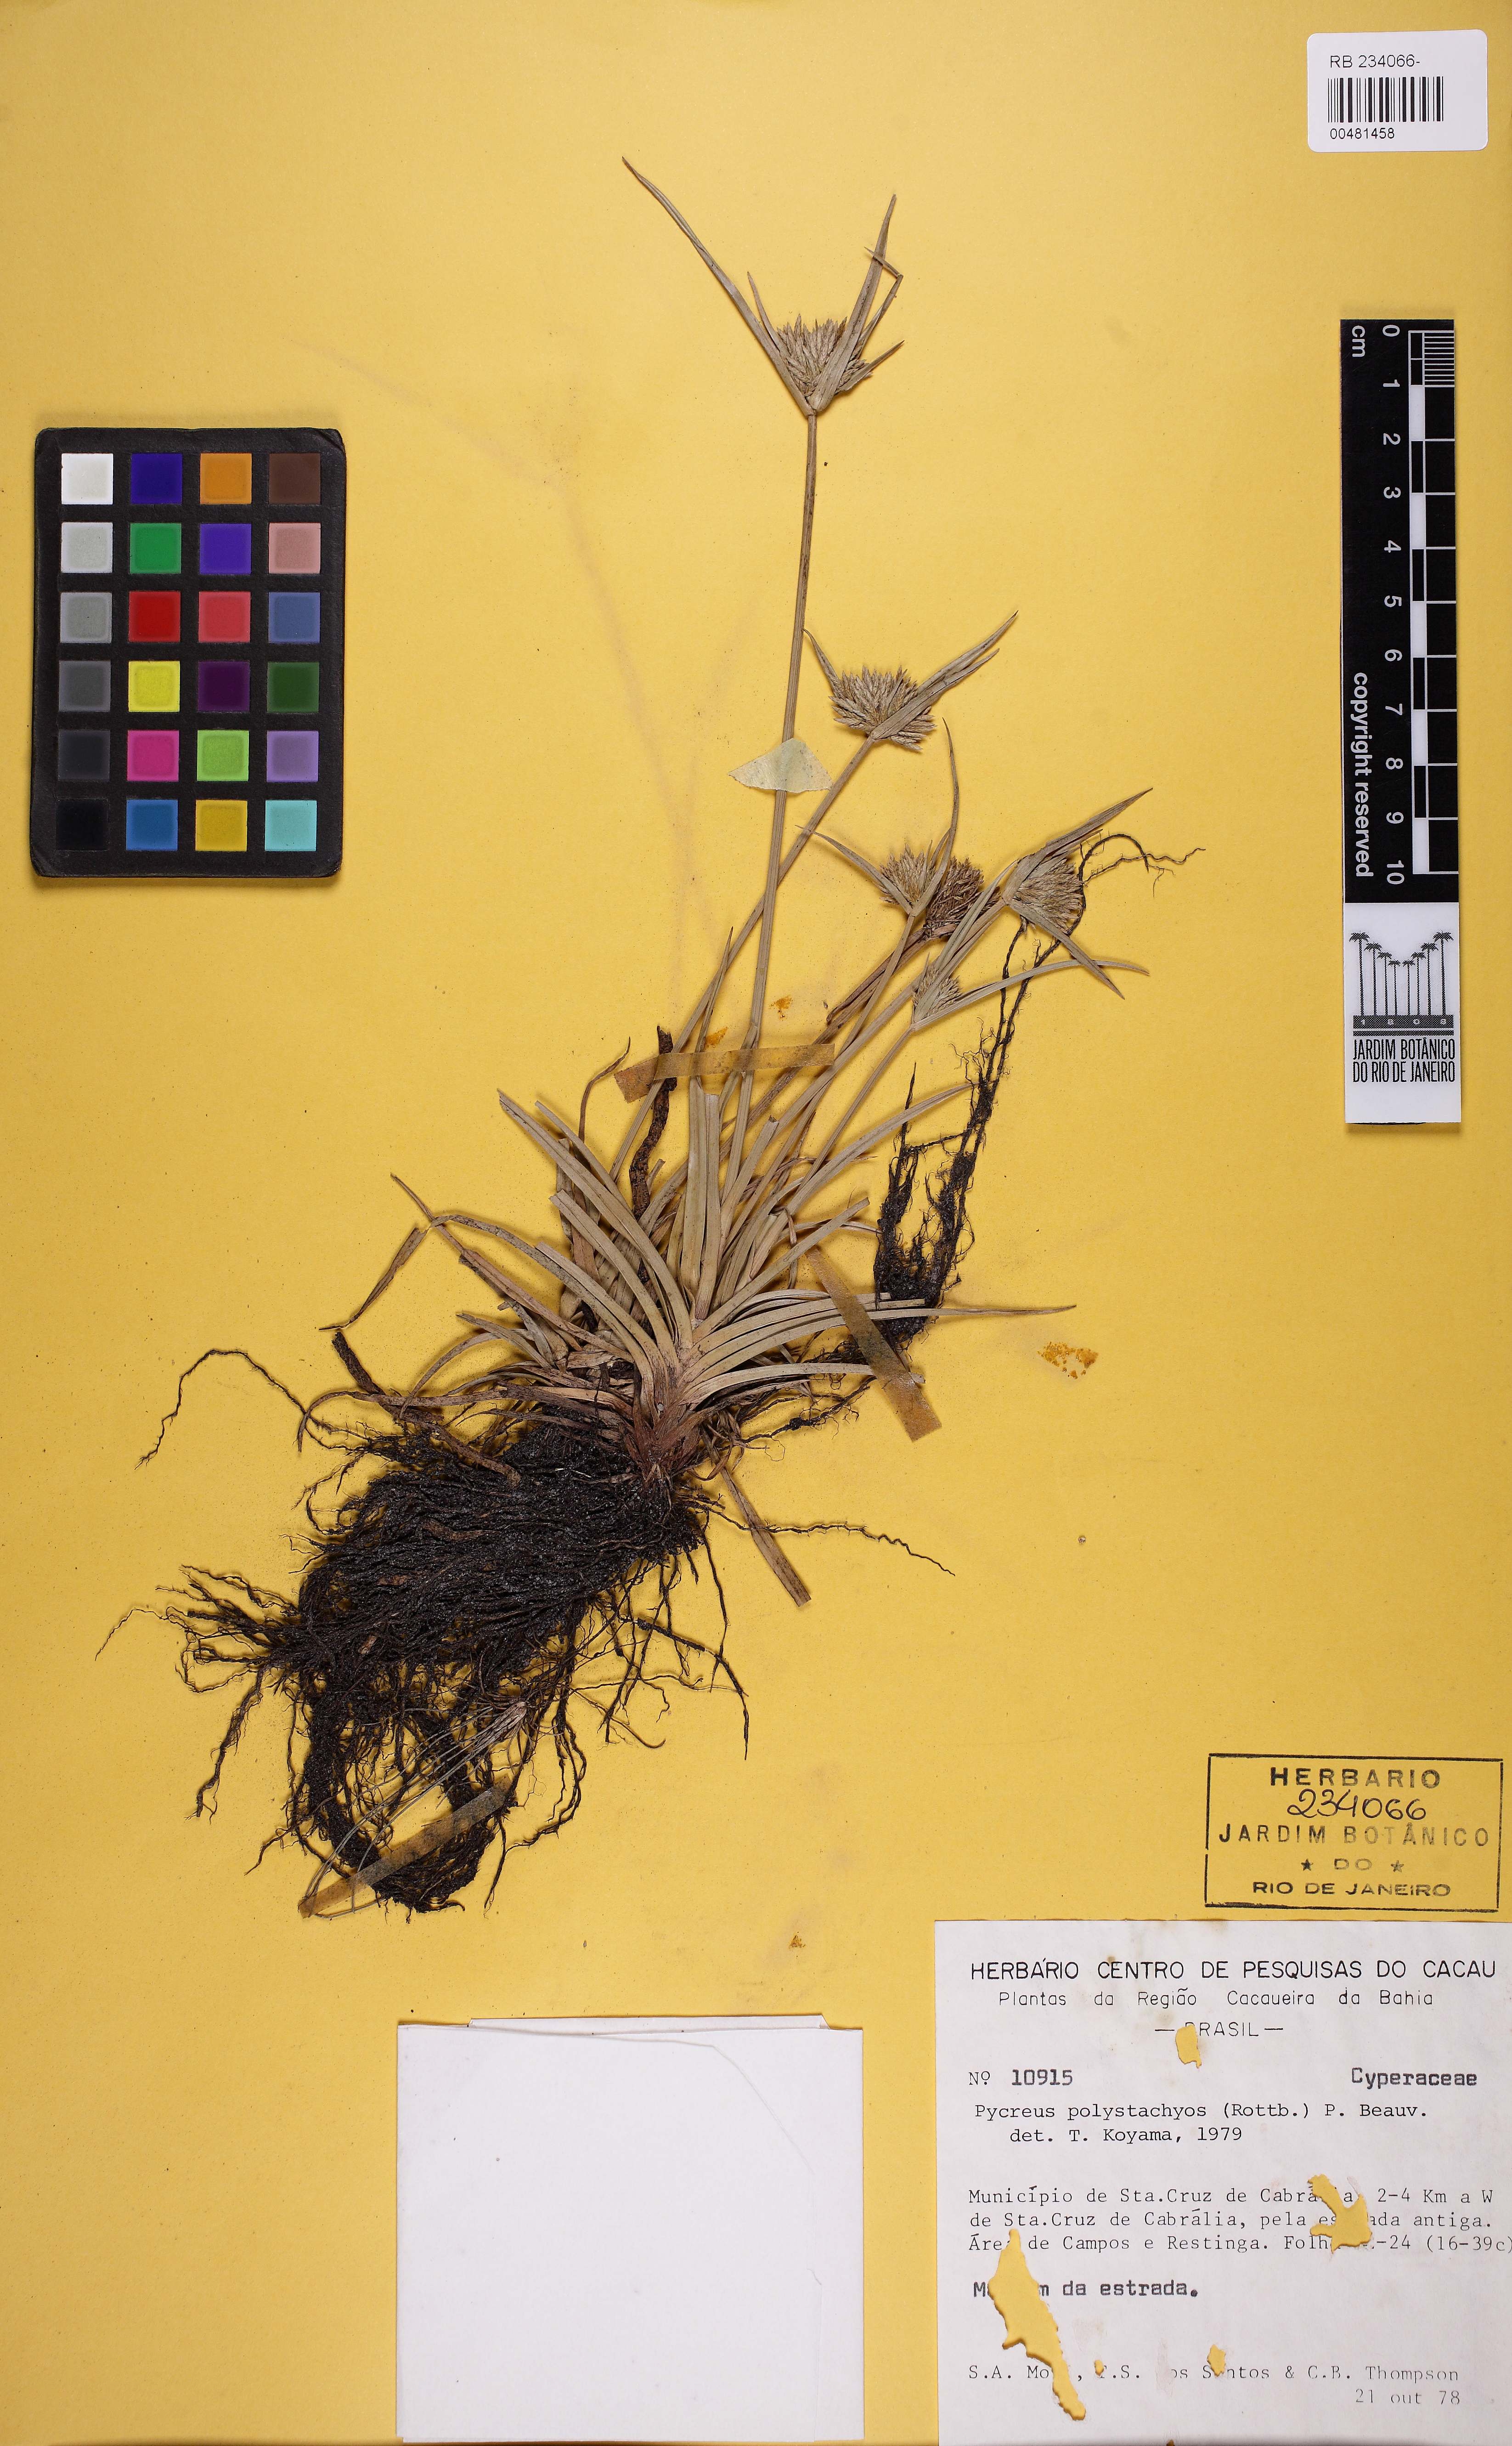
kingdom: Plantae
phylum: Tracheophyta
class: Liliopsida
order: Poales
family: Cyperaceae
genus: Cyperus
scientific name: Cyperus polystachyos
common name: Bunchy flat sedge
